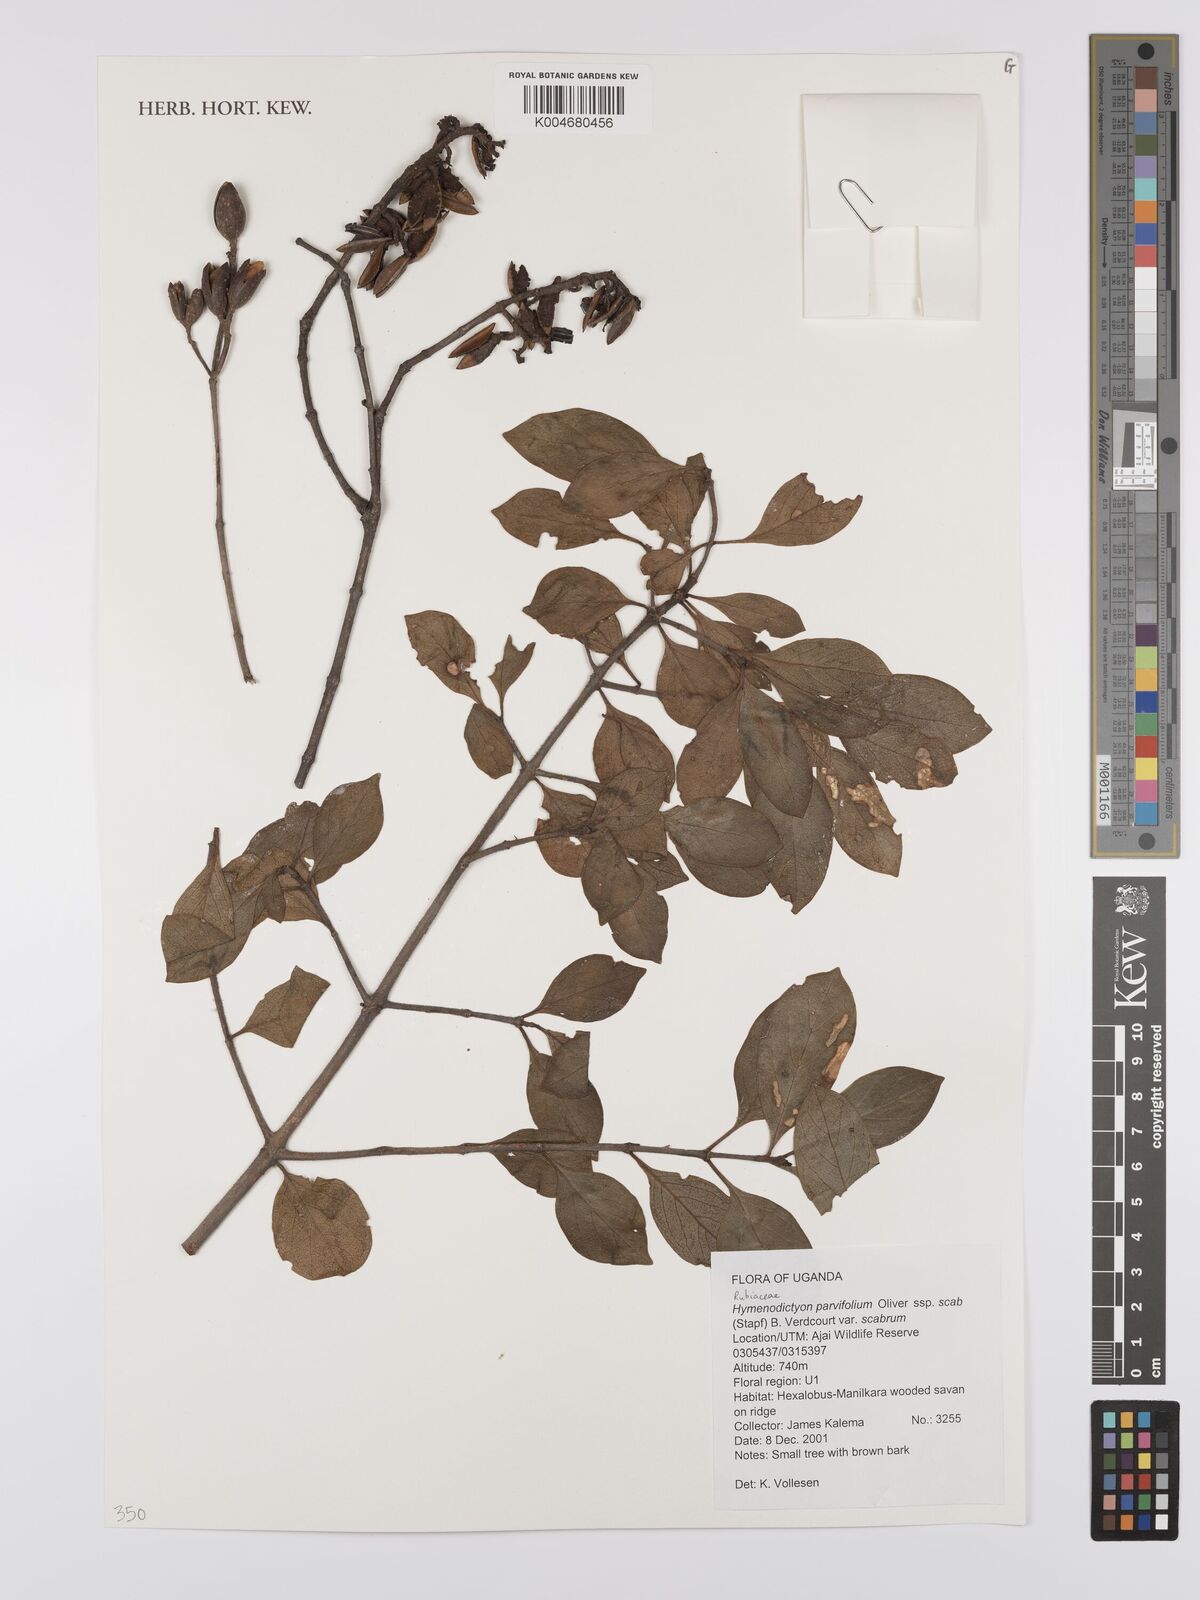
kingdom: Plantae
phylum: Tracheophyta
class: Magnoliopsida
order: Gentianales
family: Rubiaceae
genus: Hymenodictyon
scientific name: Hymenodictyon scabrum
